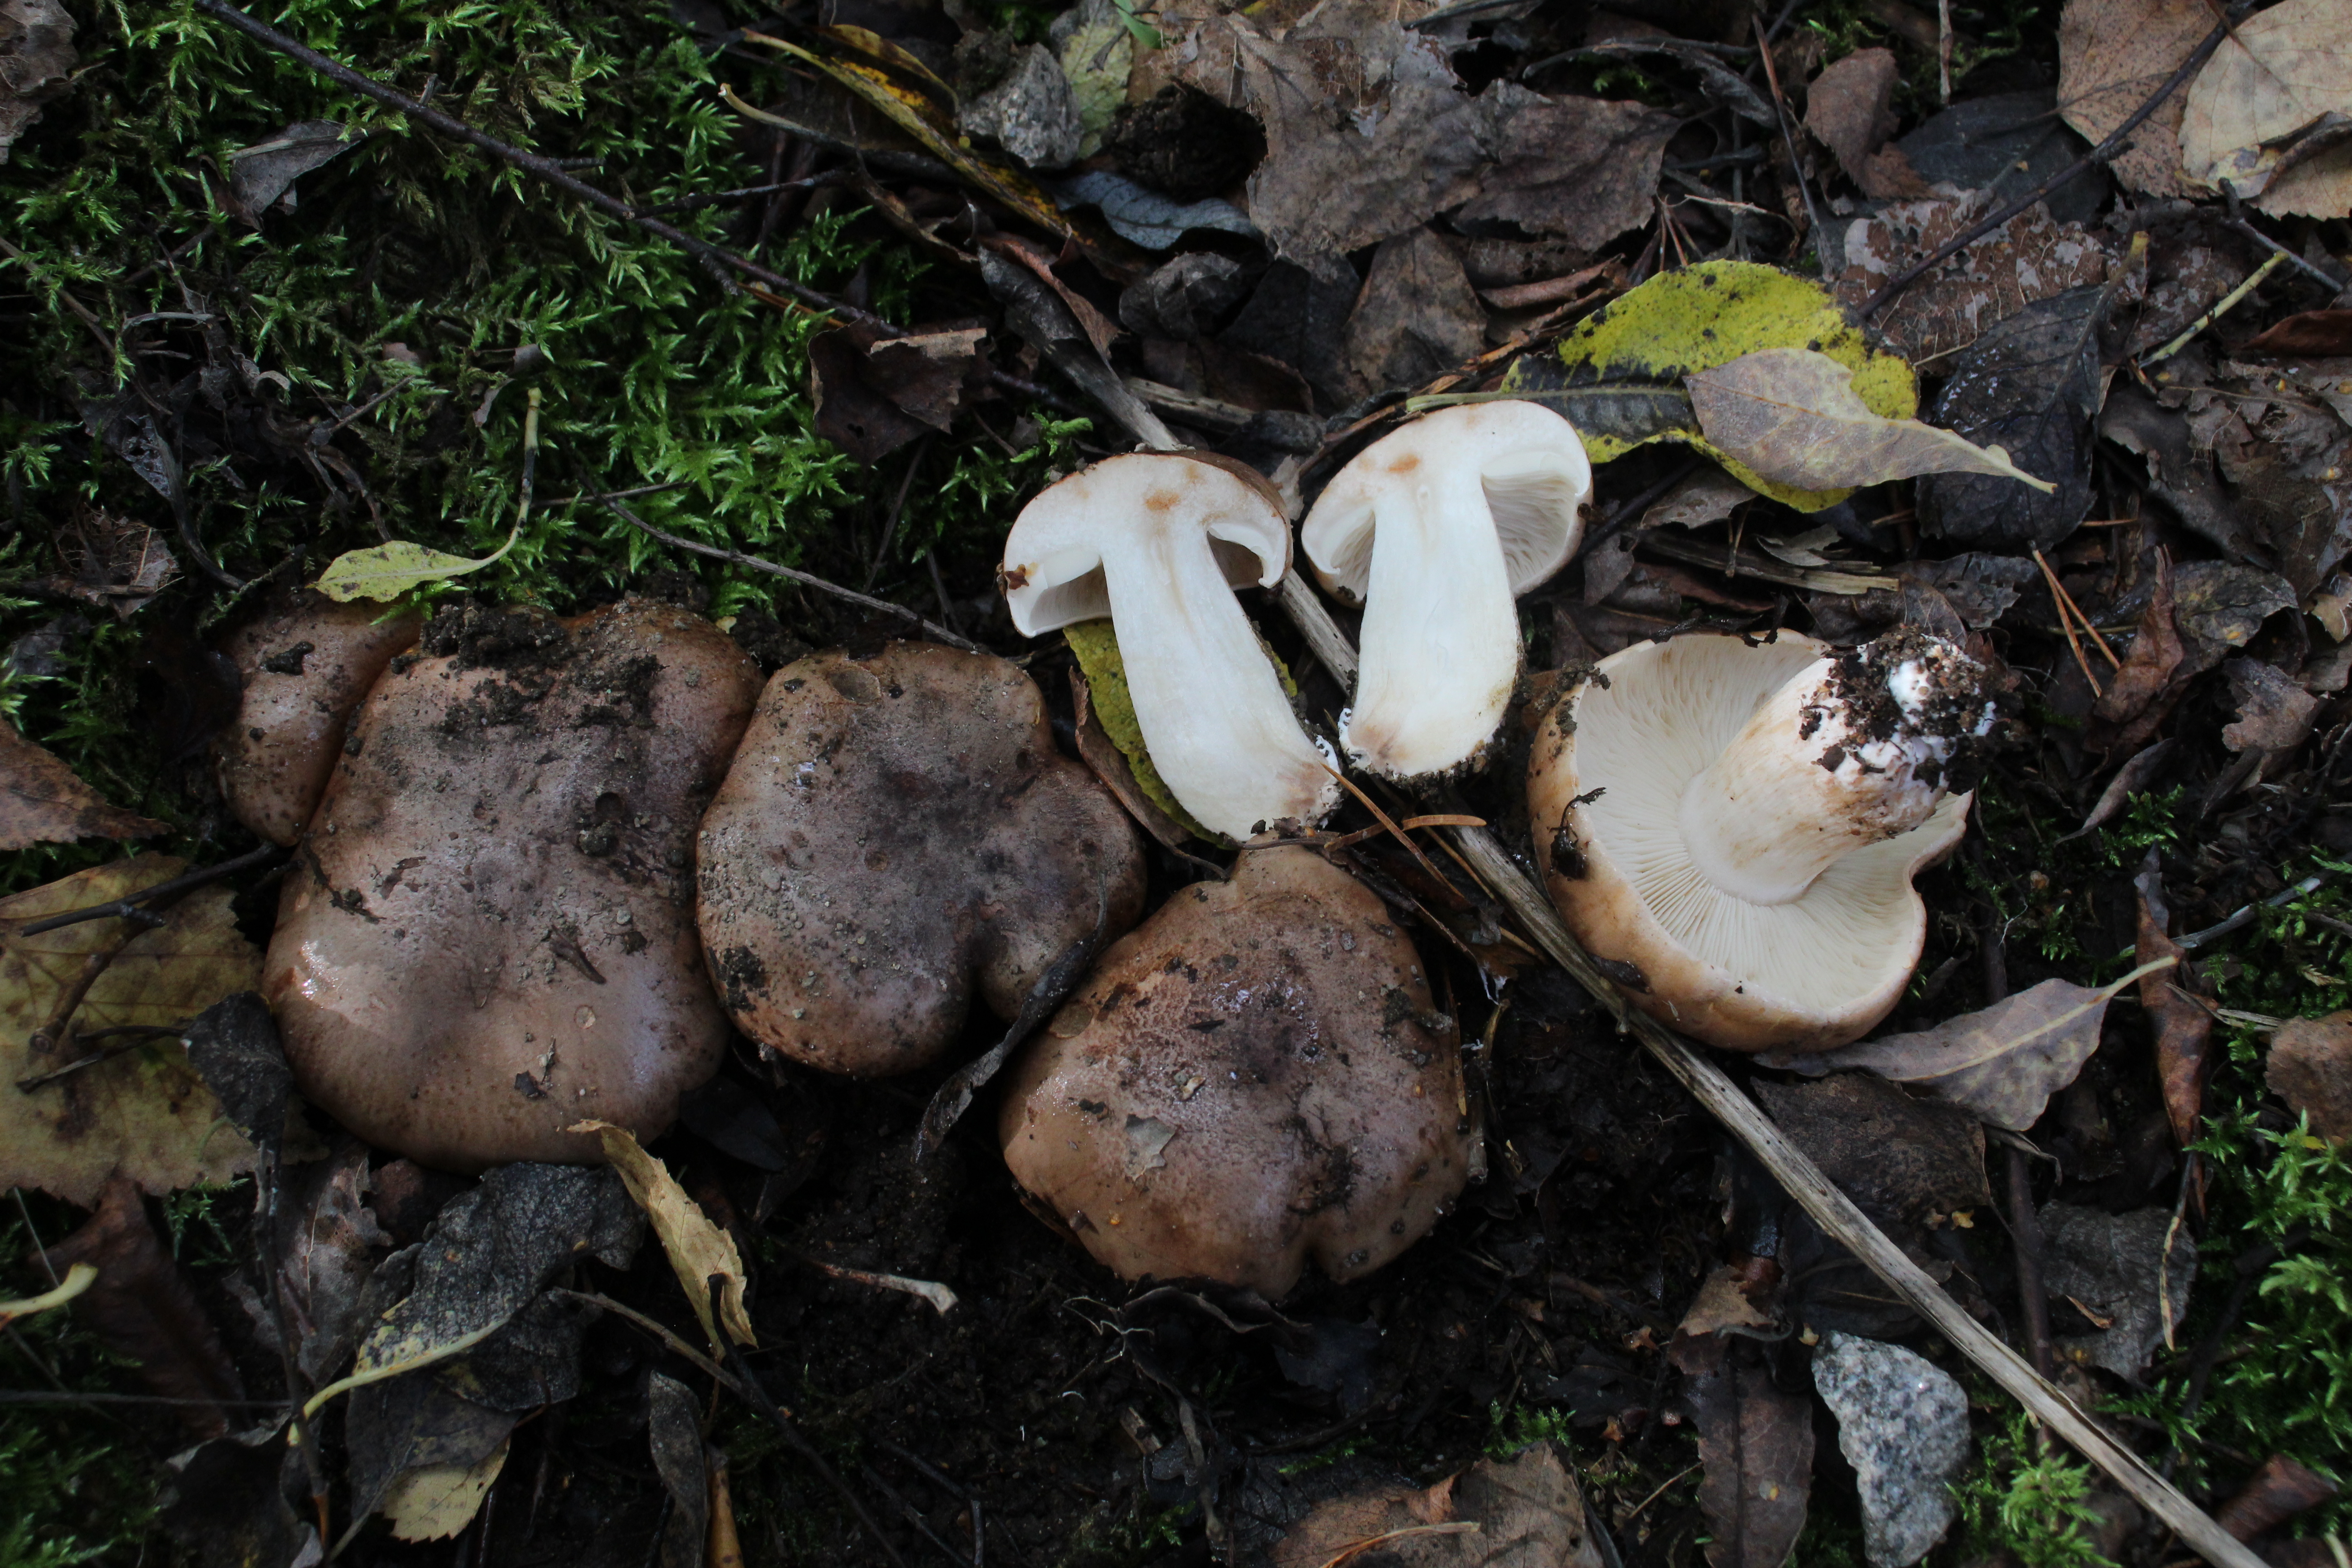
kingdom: Fungi
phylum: Basidiomycota
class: Agaricomycetes
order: Agaricales
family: Tricholomataceae
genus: Tricholoma
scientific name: Tricholoma
